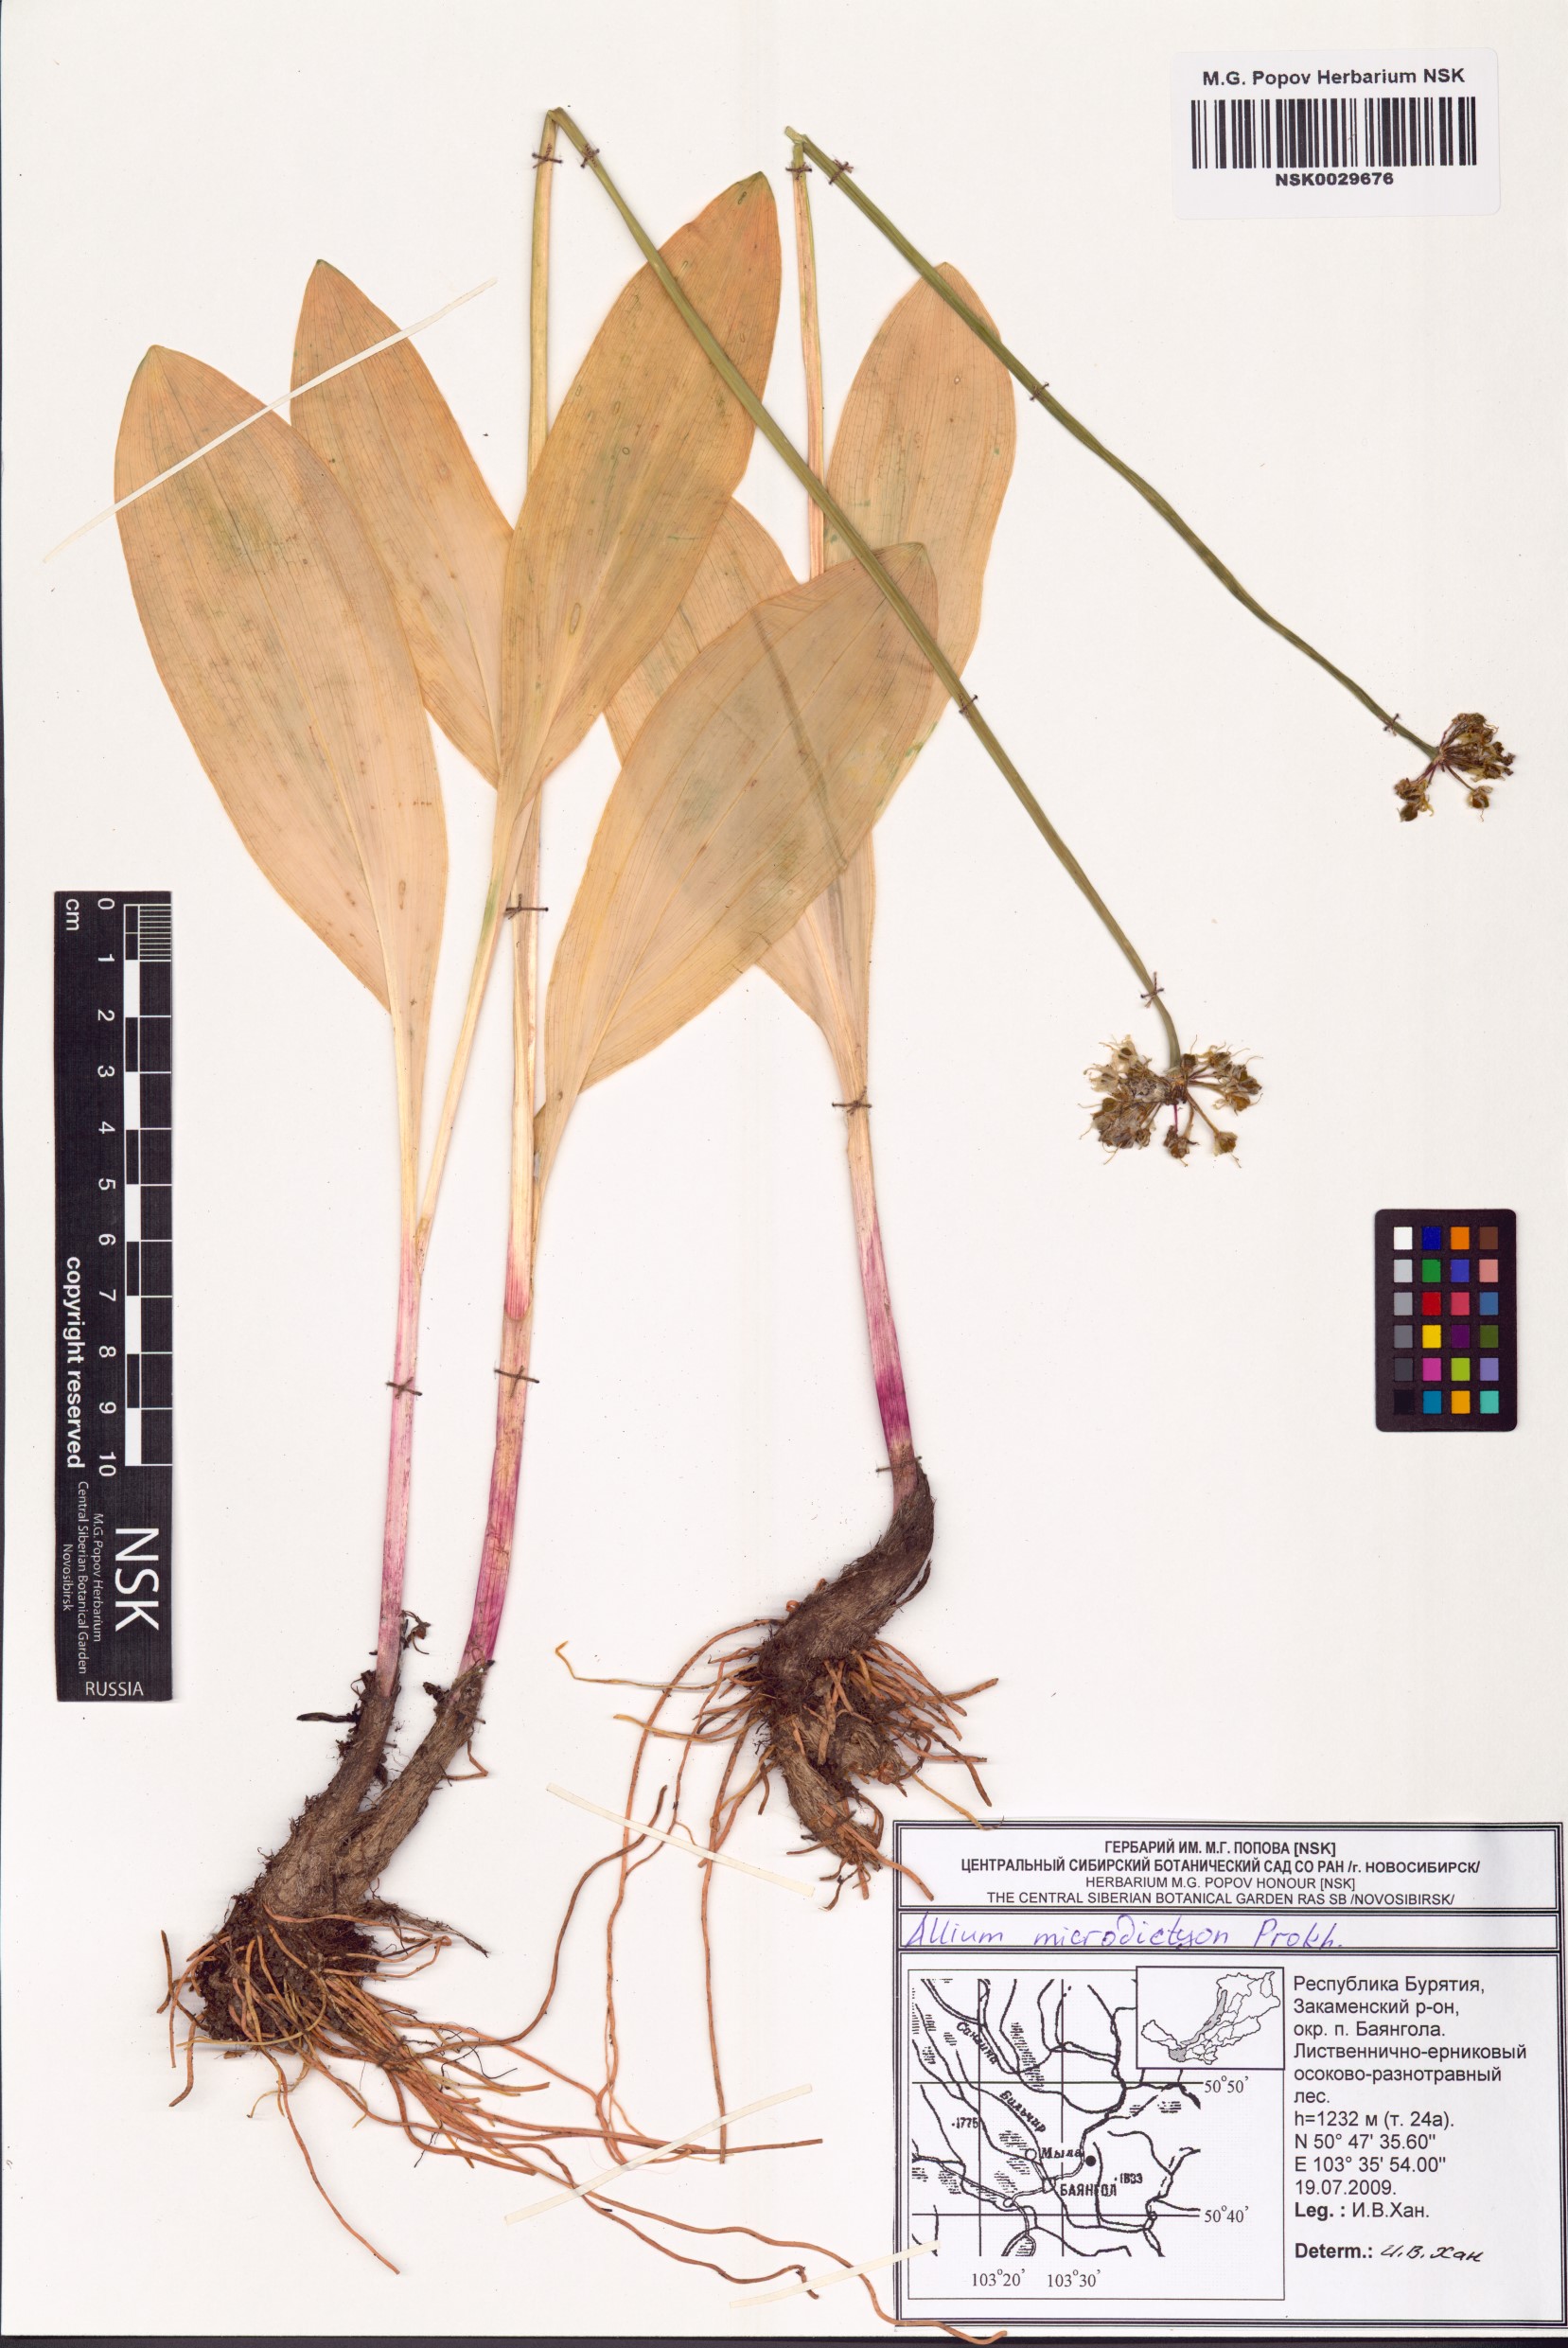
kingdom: Plantae
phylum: Tracheophyta
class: Liliopsida
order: Asparagales
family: Amaryllidaceae
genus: Allium
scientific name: Allium microdictyon
